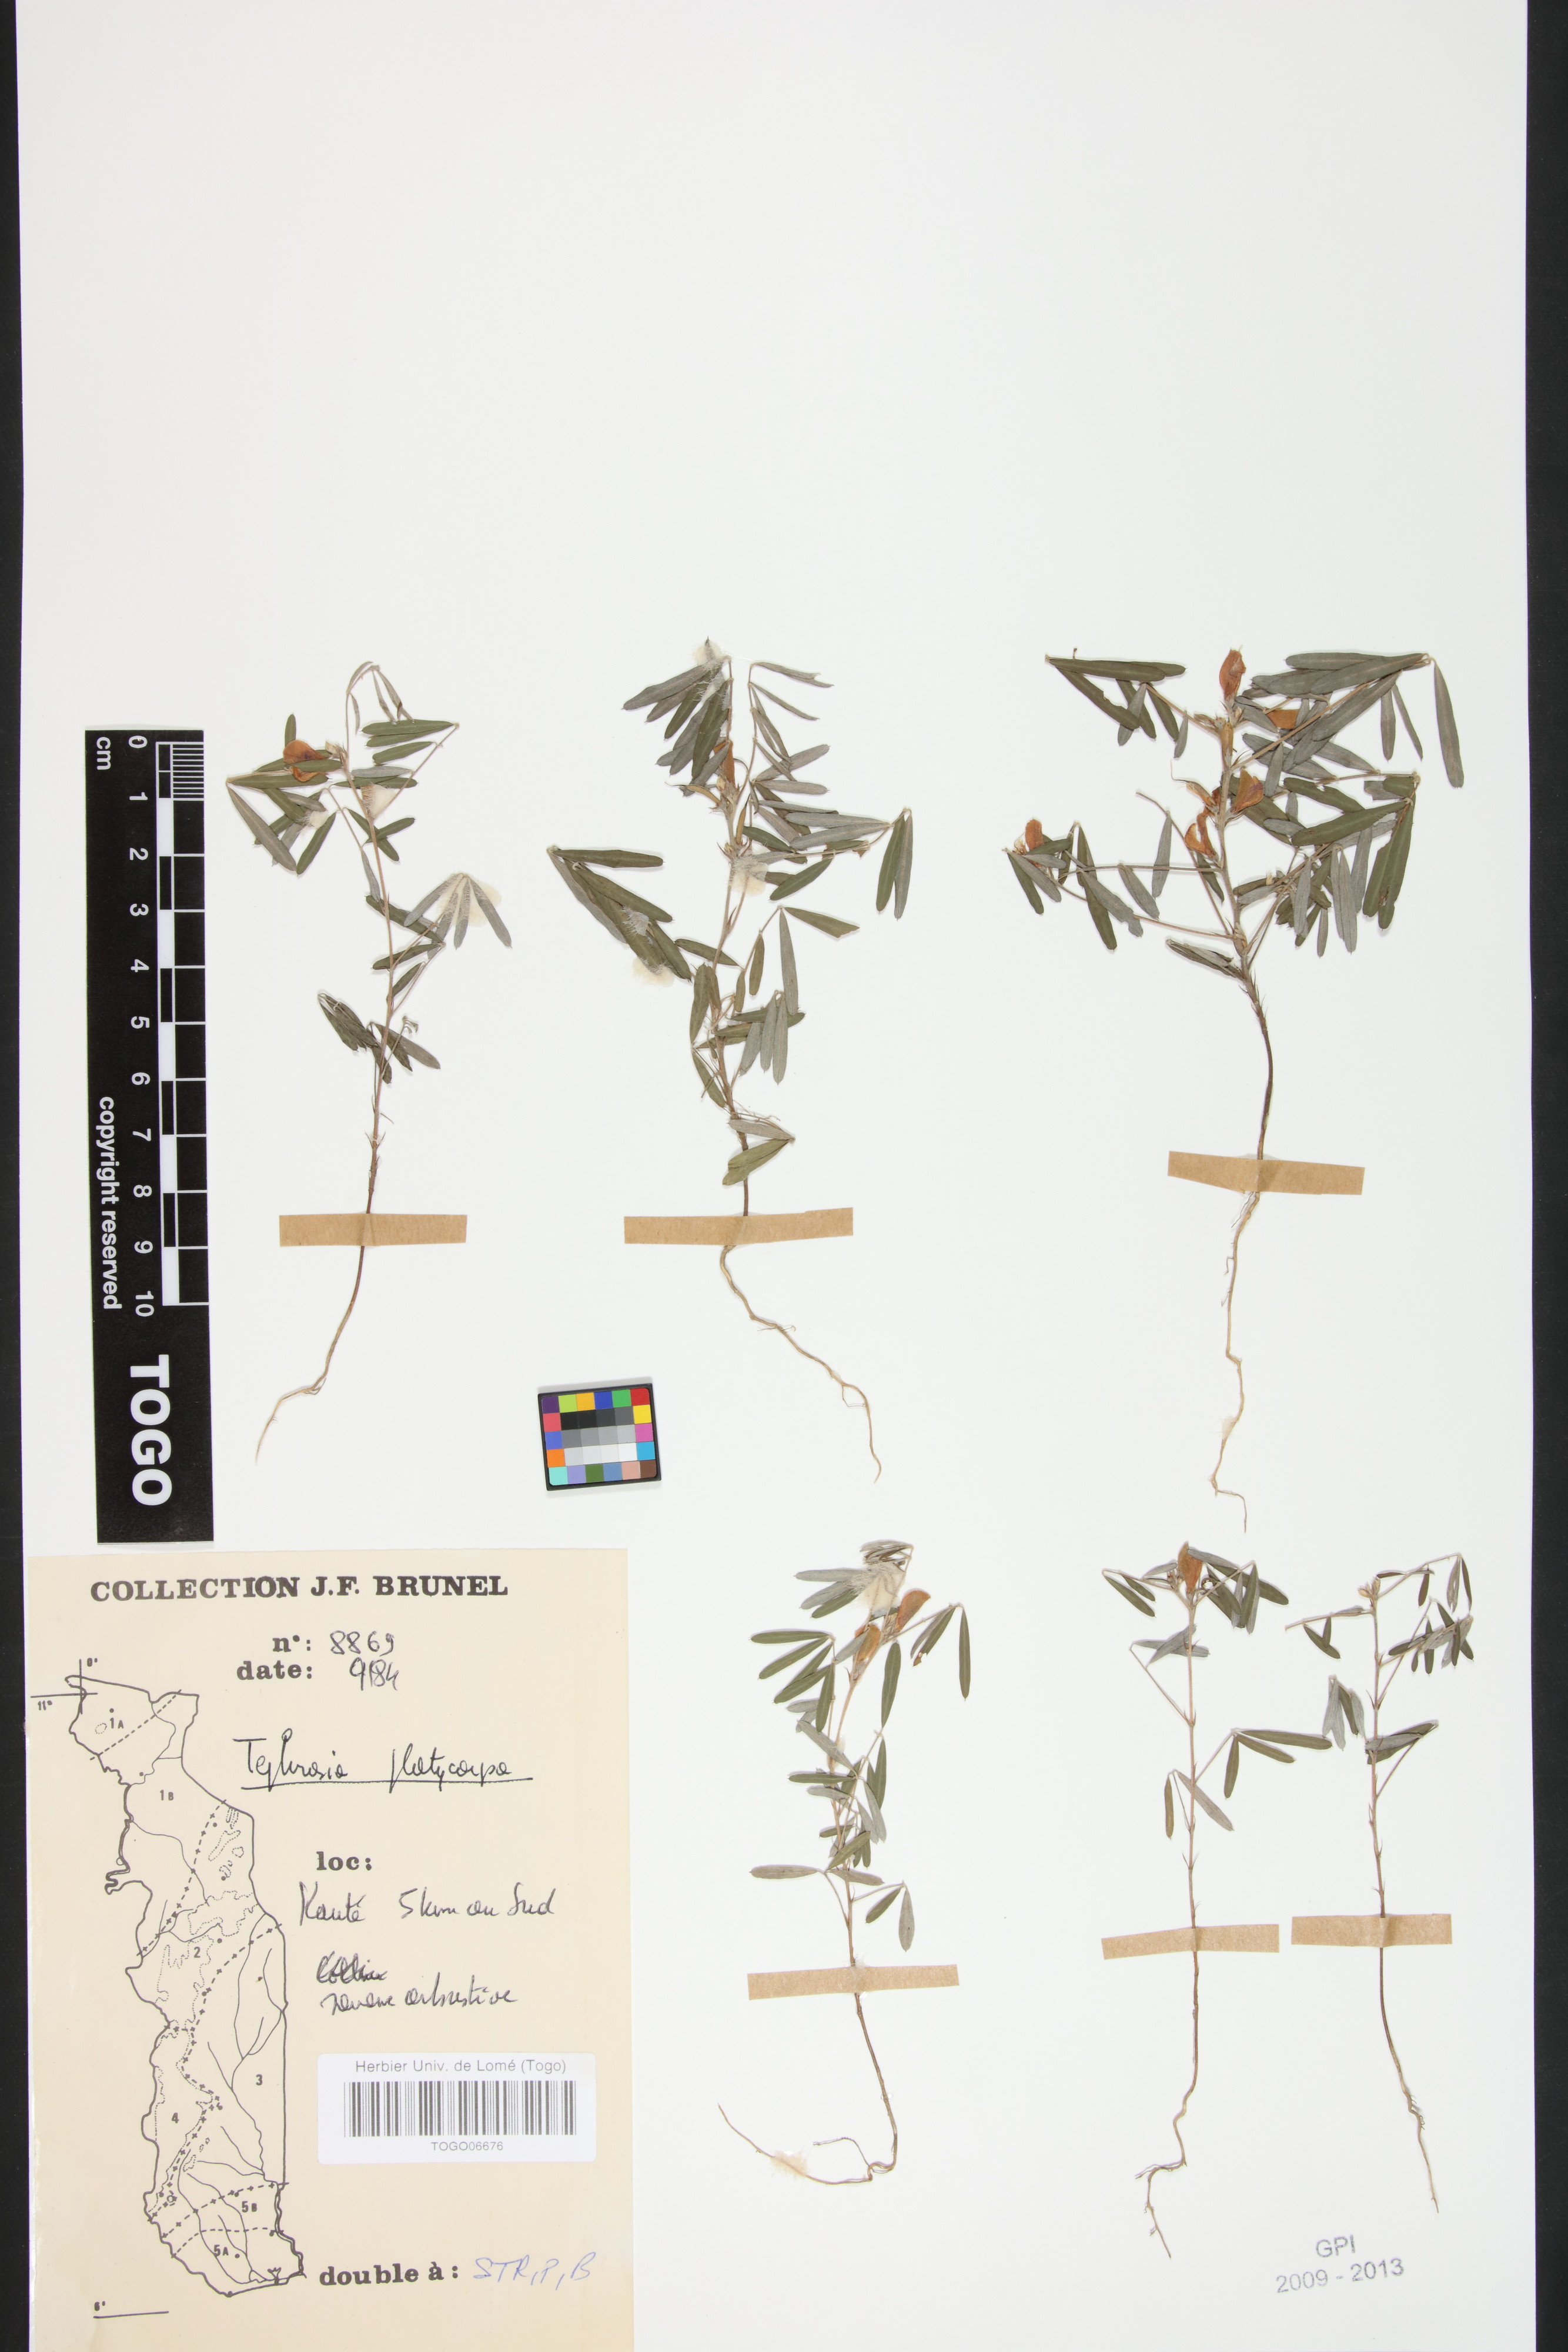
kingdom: Plantae
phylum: Tracheophyta
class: Magnoliopsida
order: Fabales
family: Fabaceae
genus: Tephrosia
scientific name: Tephrosia pedicellata
